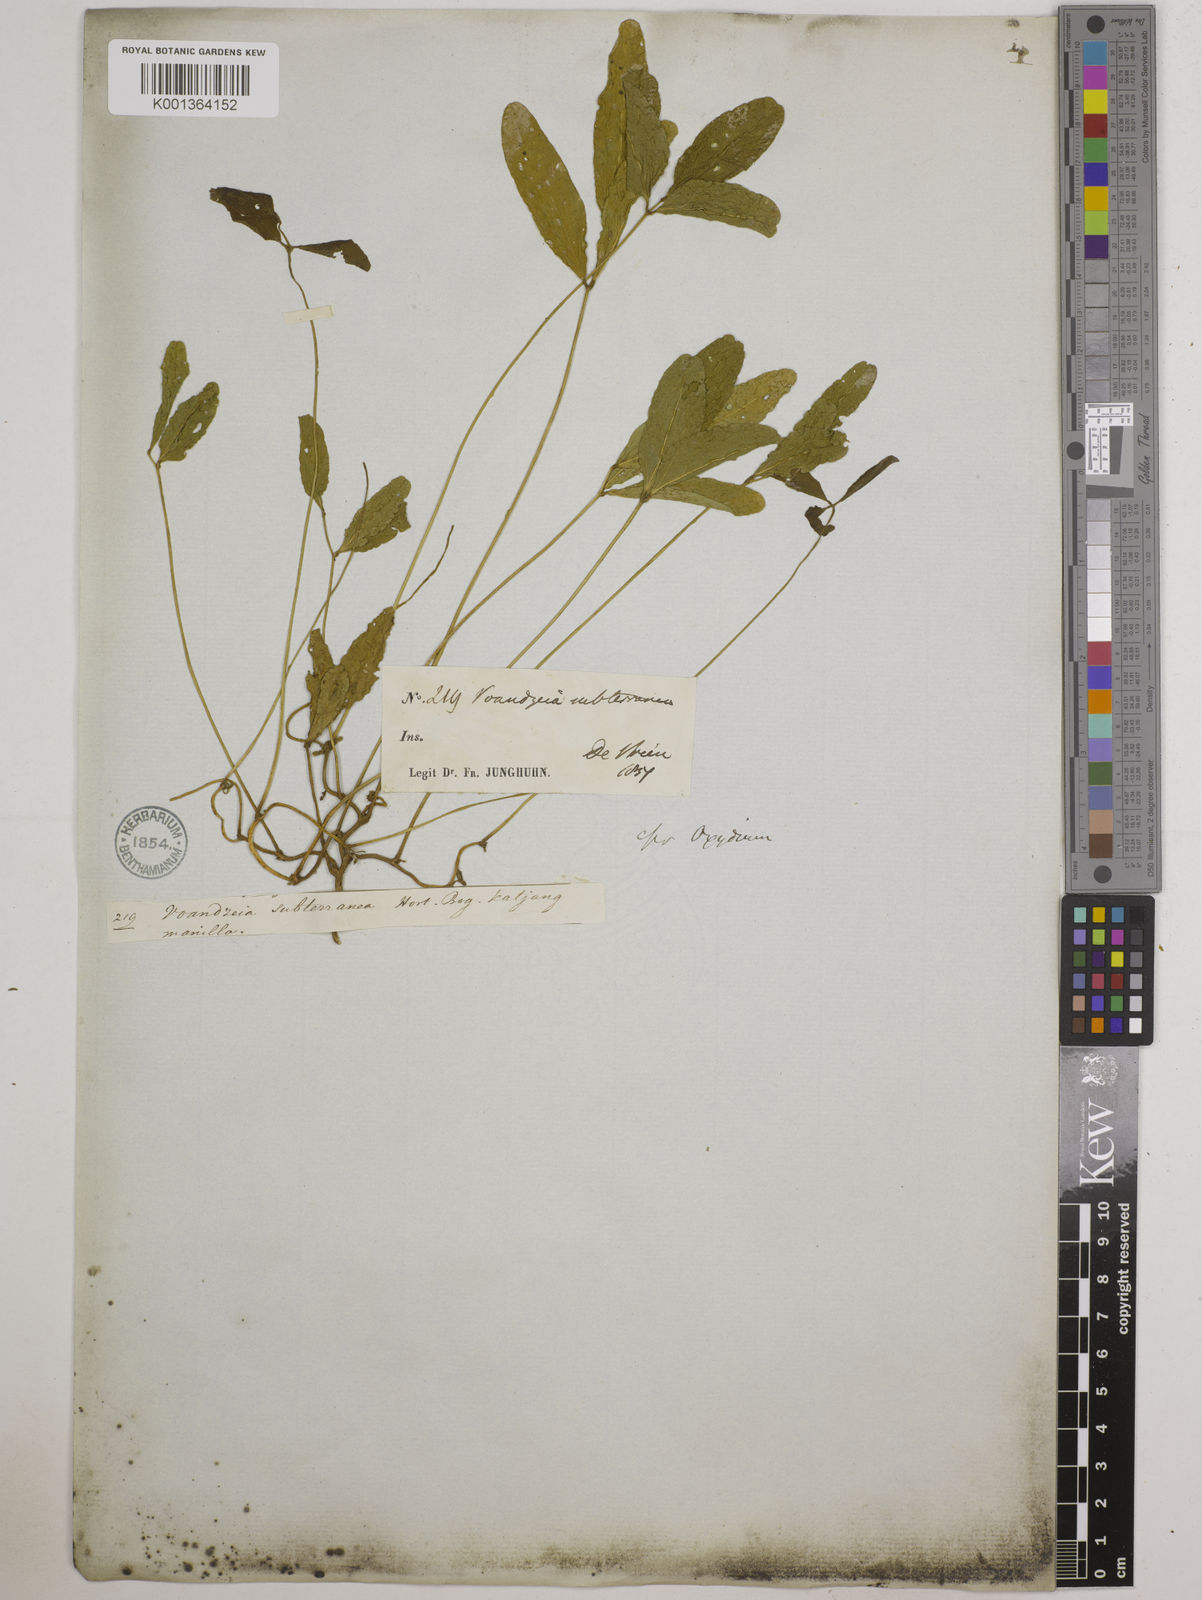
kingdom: Plantae
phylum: Tracheophyta
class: Magnoliopsida
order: Fabales
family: Fabaceae
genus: Vigna
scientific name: Vigna subterranea
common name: Bambara groundnut
